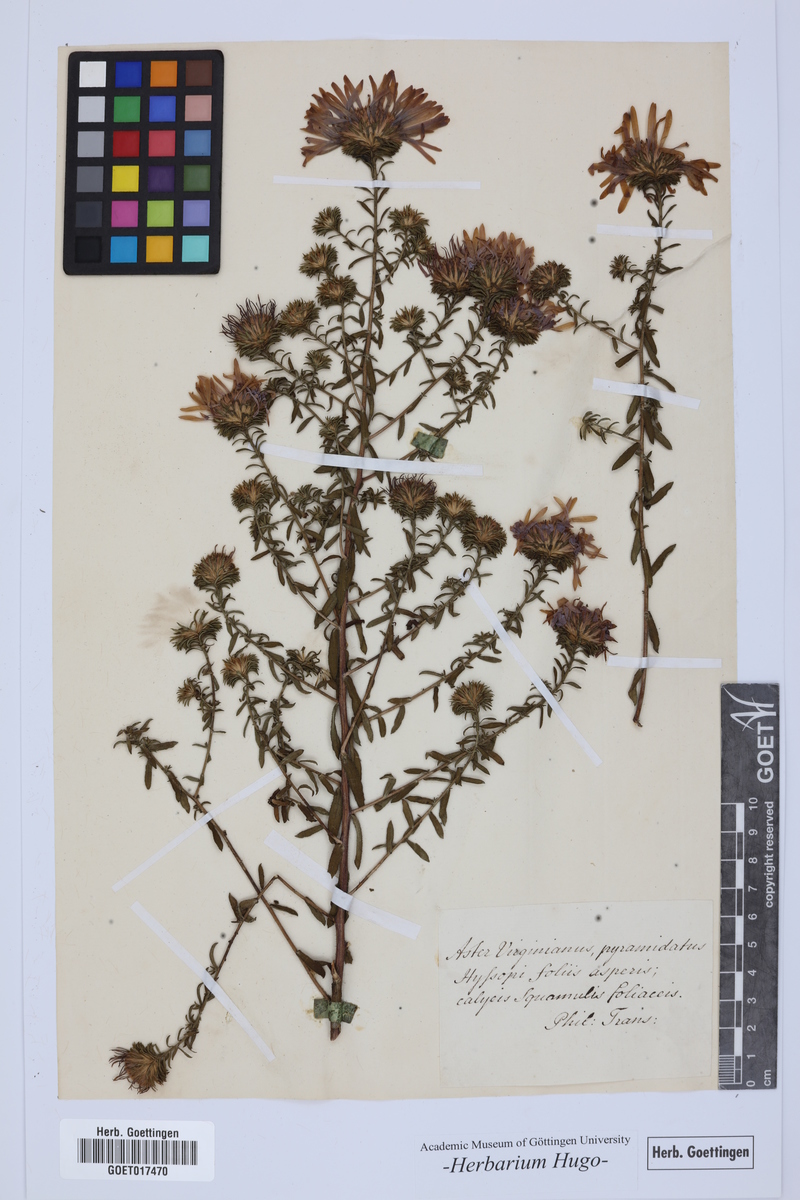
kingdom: Plantae
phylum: Tracheophyta
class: Magnoliopsida
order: Asterales
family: Asteraceae
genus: Symphyotrichum
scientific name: Symphyotrichum grandiflorum
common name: Big-head aster
